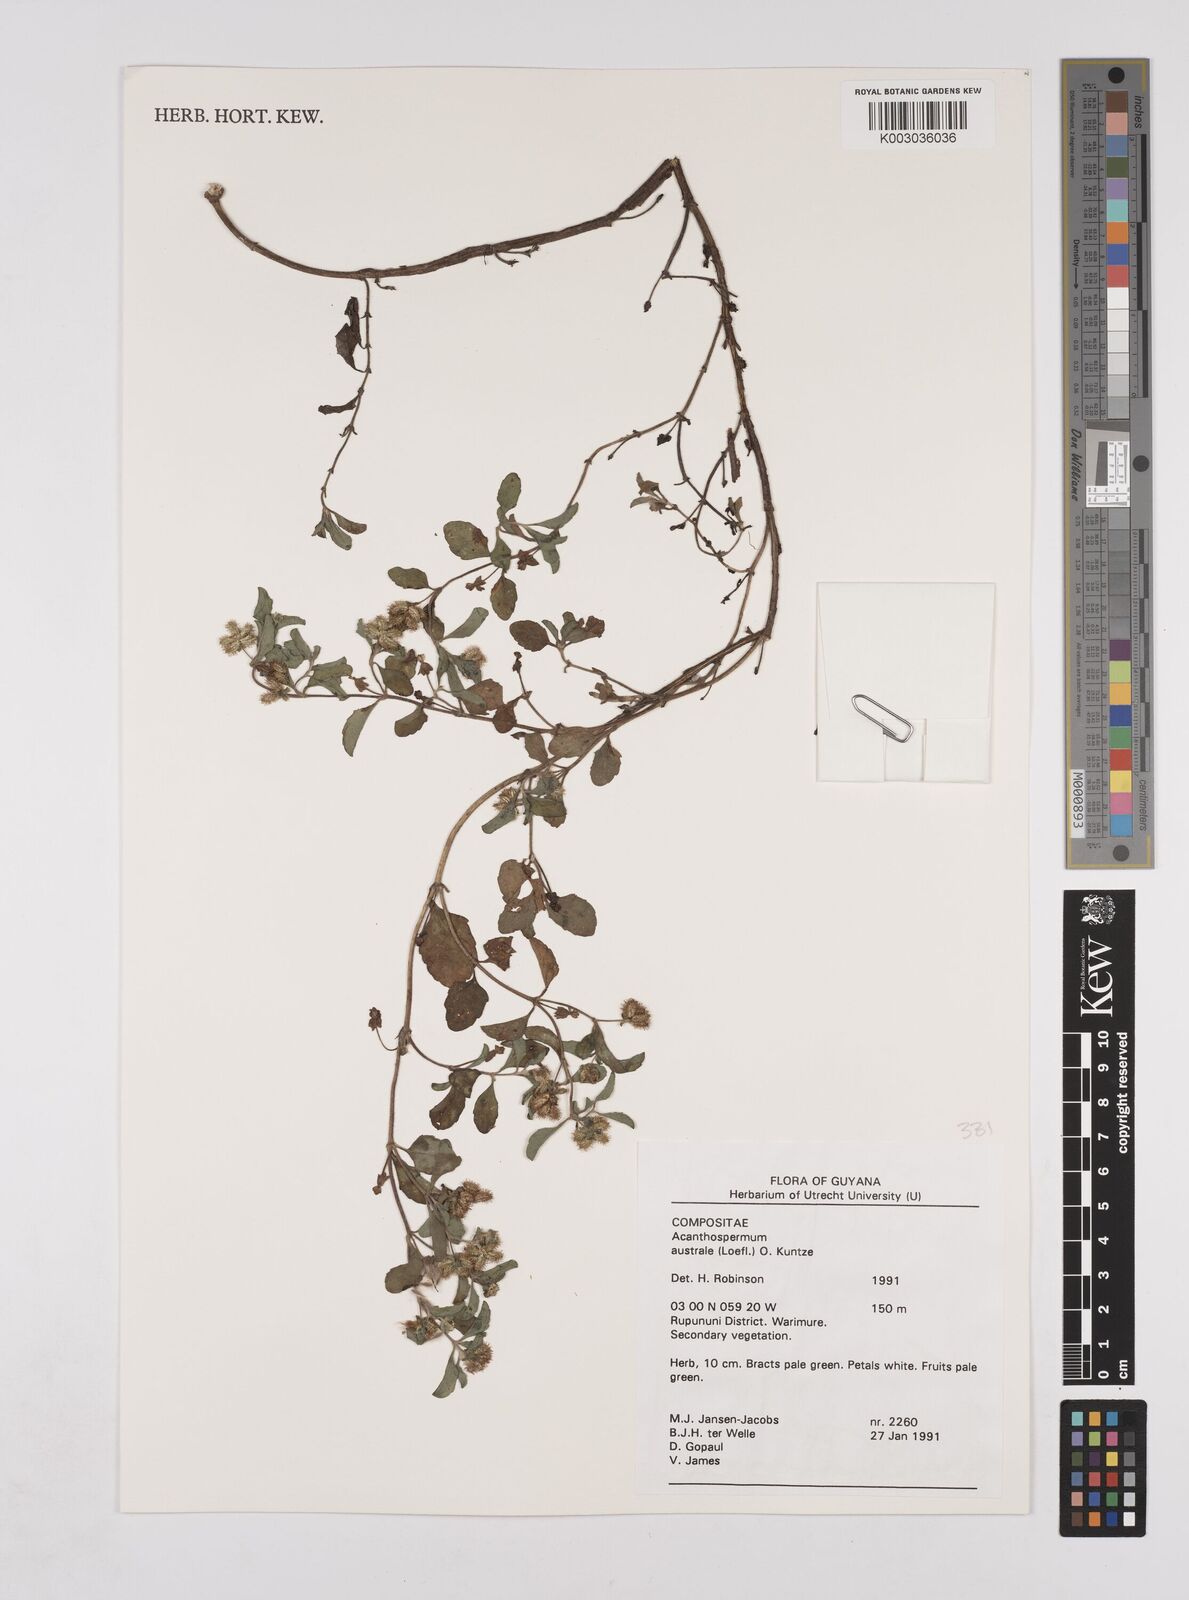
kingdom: Plantae
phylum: Tracheophyta
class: Magnoliopsida
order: Asterales
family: Asteraceae
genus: Acanthospermum
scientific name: Acanthospermum australe
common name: Paraguayan starbur
